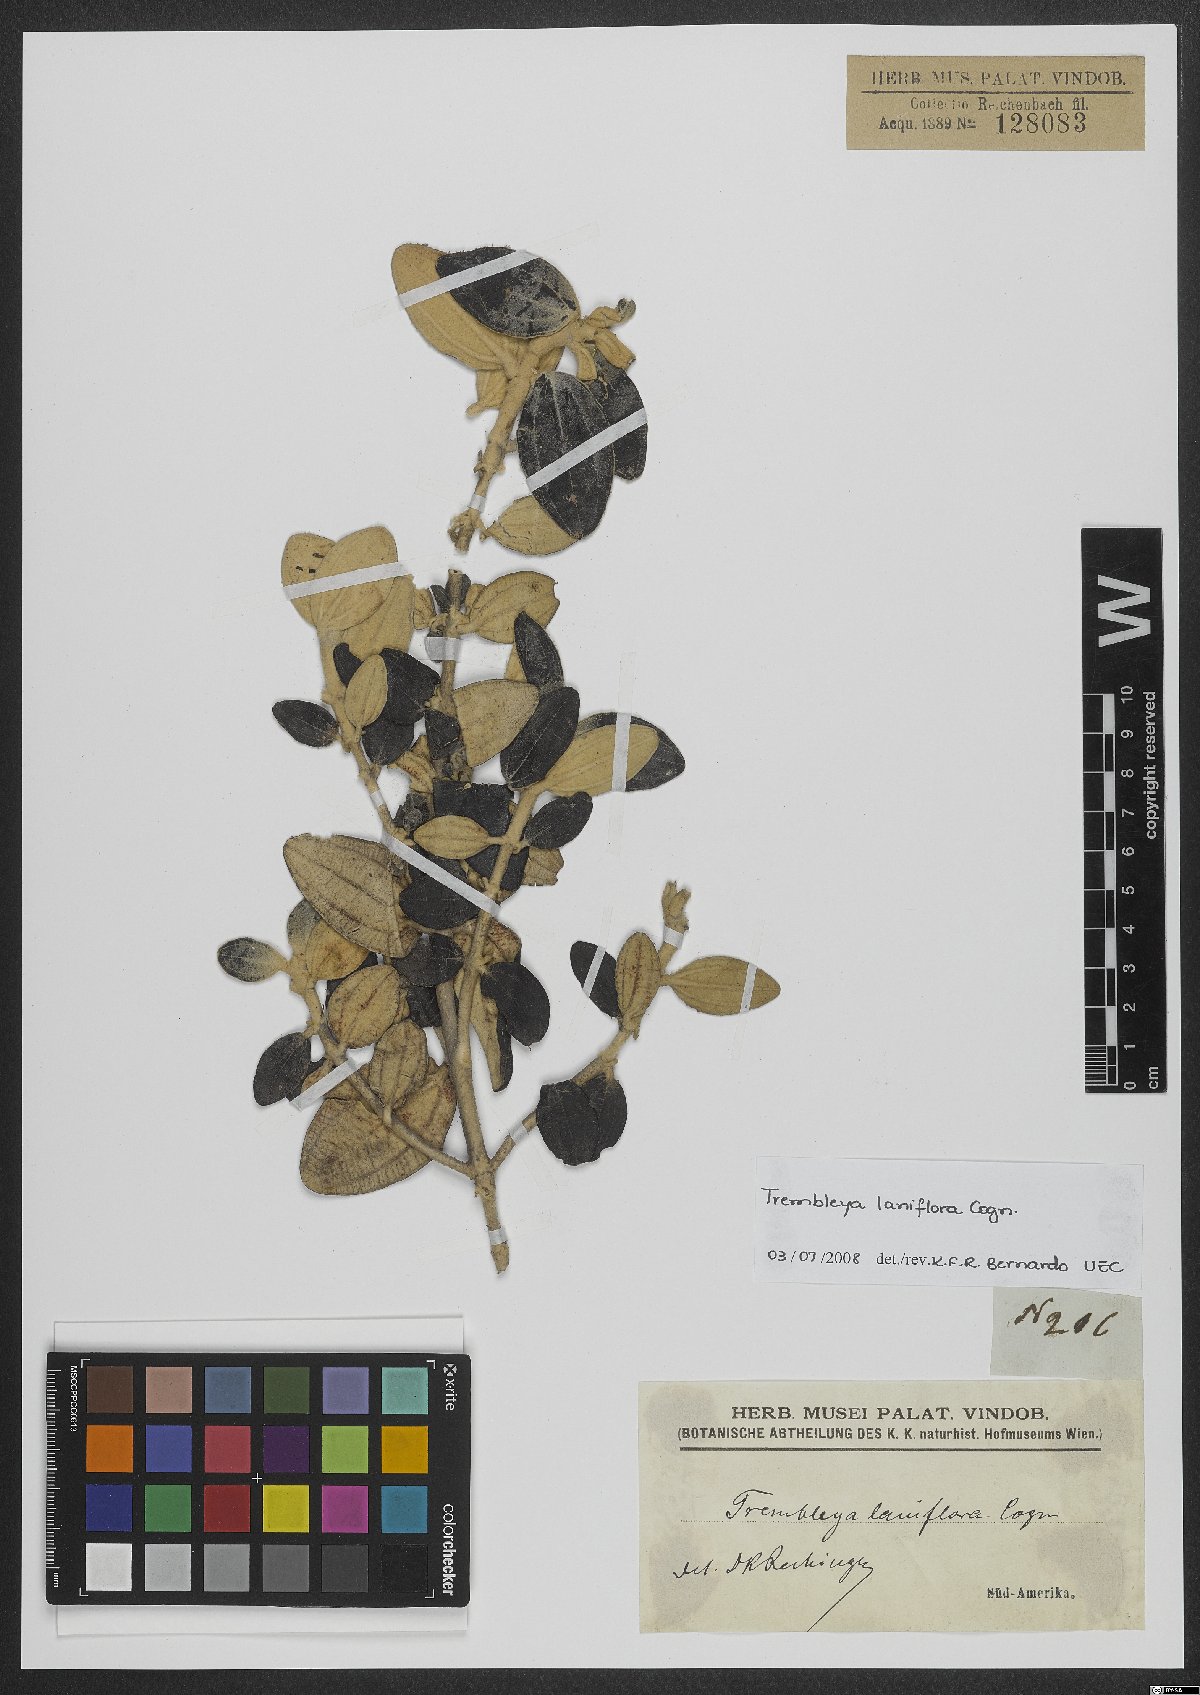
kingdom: Plantae
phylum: Tracheophyta
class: Magnoliopsida
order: Myrtales
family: Melastomataceae
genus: Microlicia
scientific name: Microlicia laniflora
